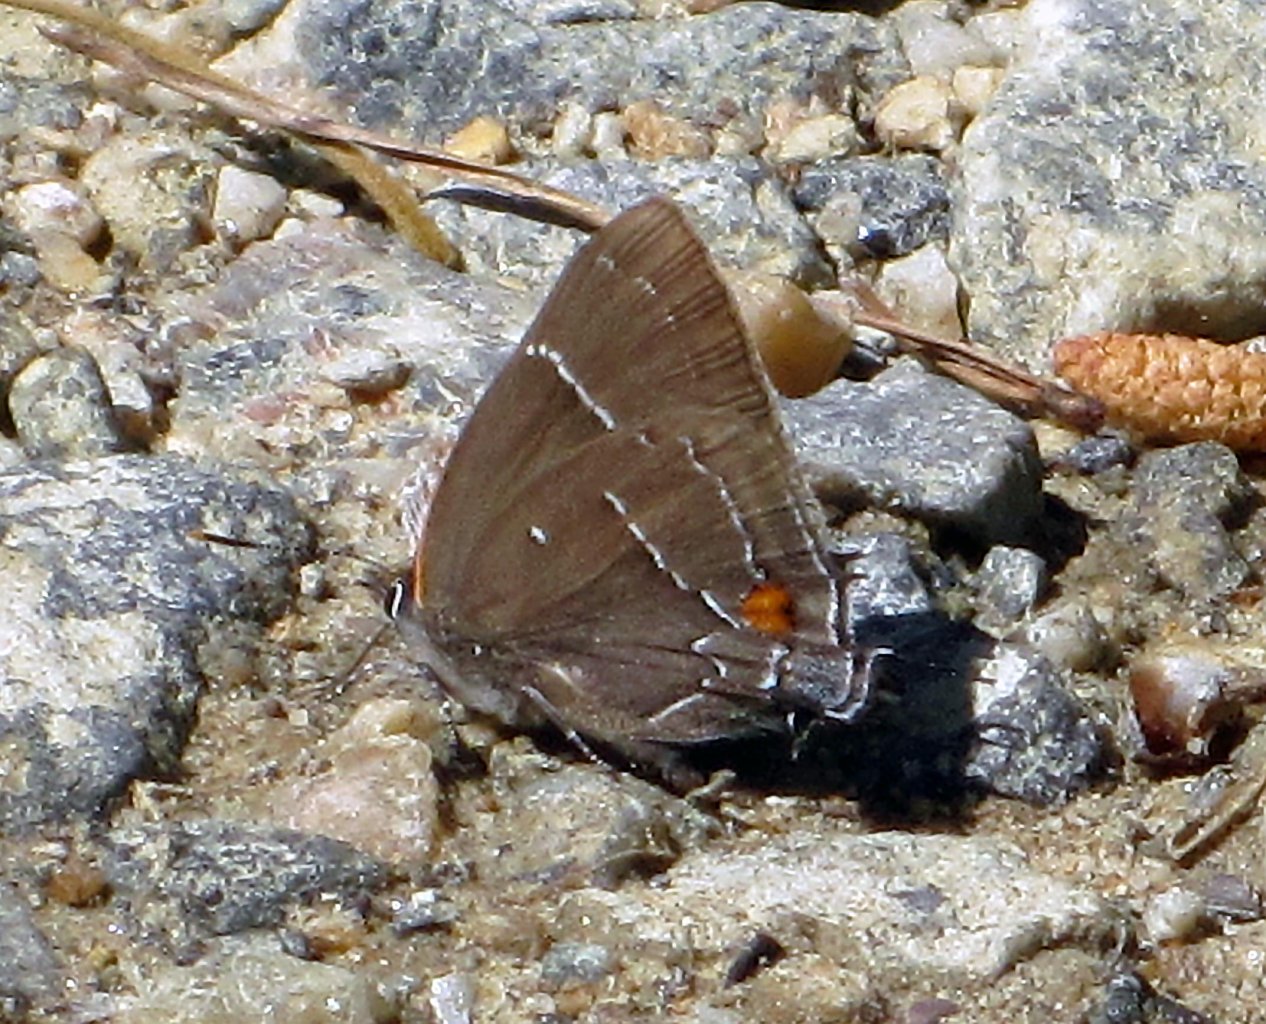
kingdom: Animalia
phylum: Arthropoda
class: Insecta
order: Lepidoptera
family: Lycaenidae
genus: Parrhasius
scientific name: Parrhasius m-album
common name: White-m Hairstreak
